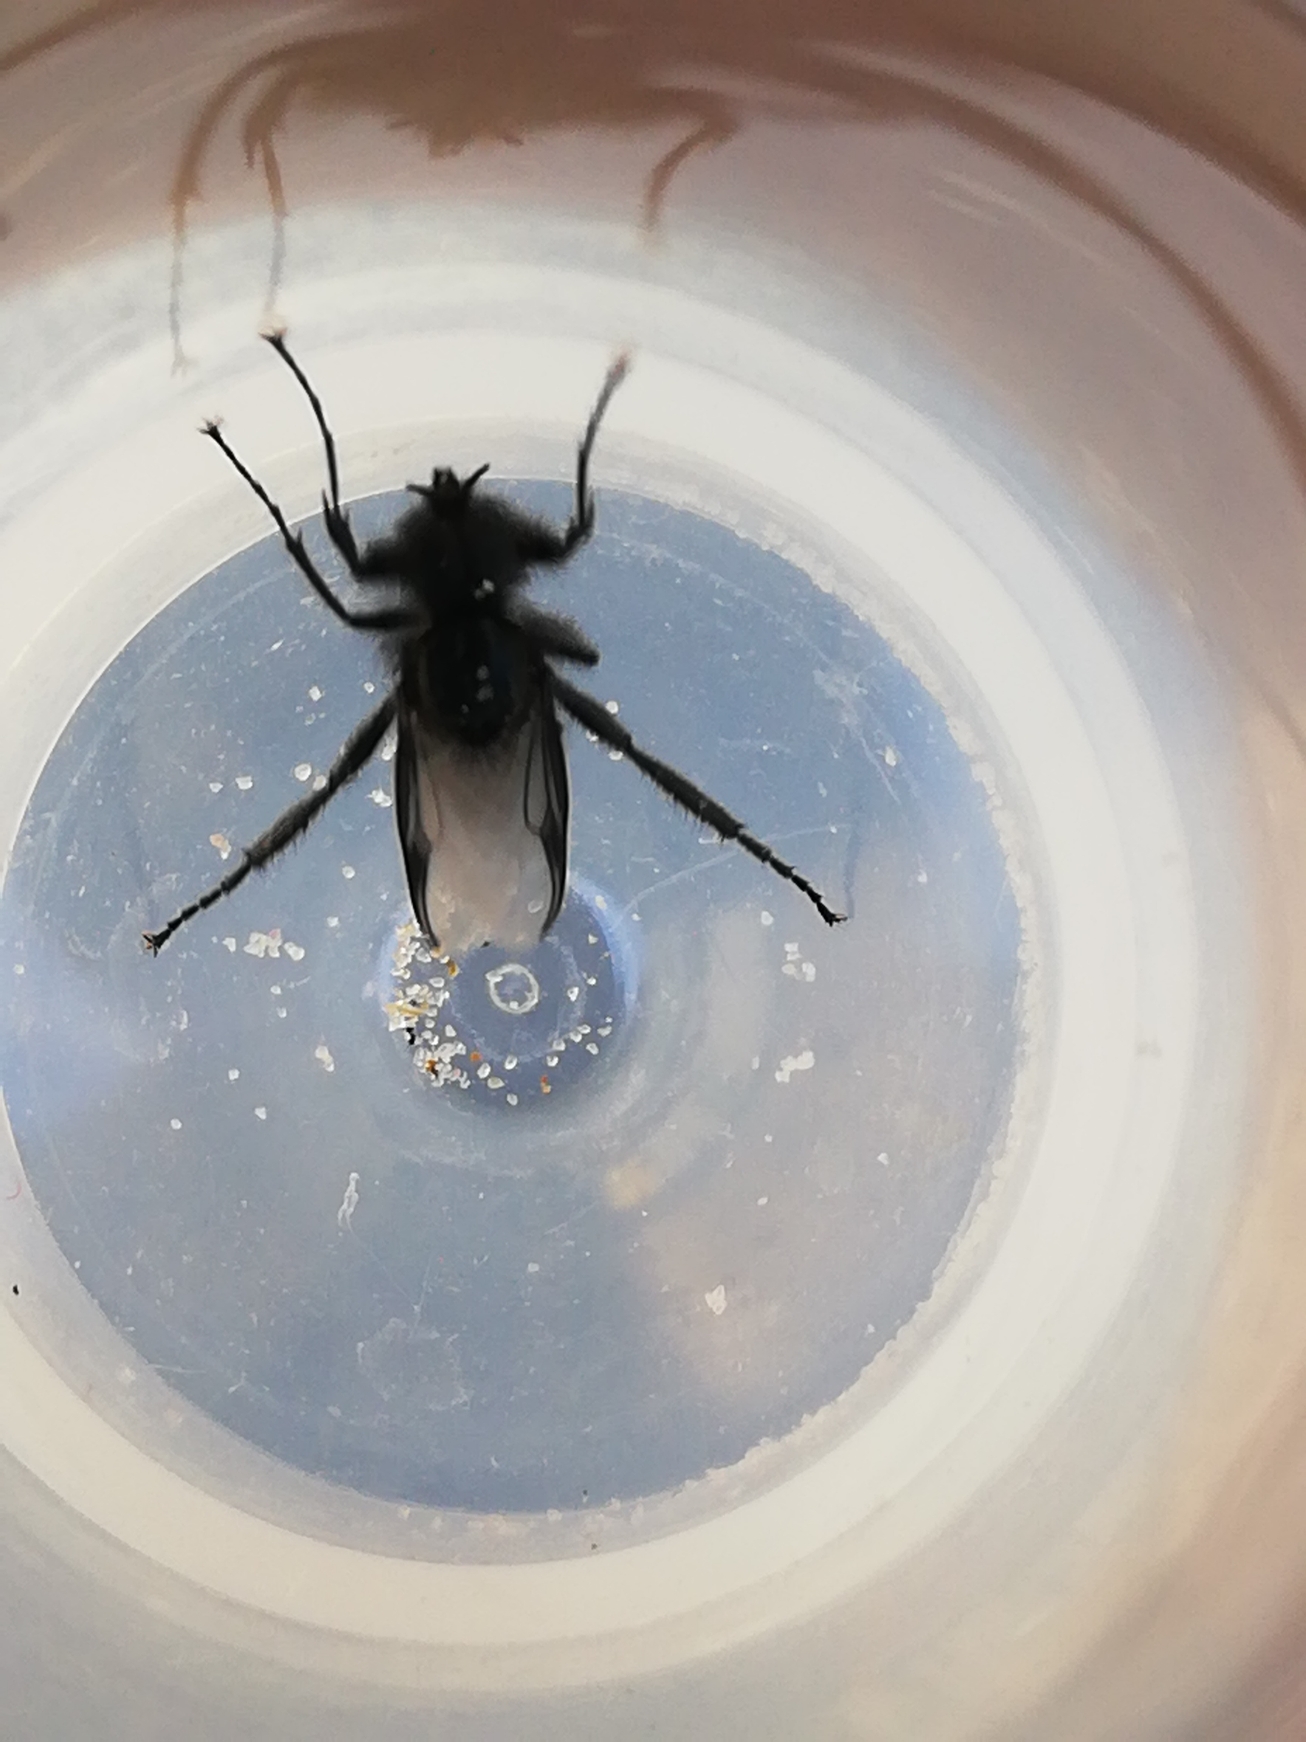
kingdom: Animalia
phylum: Arthropoda
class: Insecta
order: Diptera
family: Bibionidae
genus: Bibio
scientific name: Bibio marci
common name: Skovhårmyg
